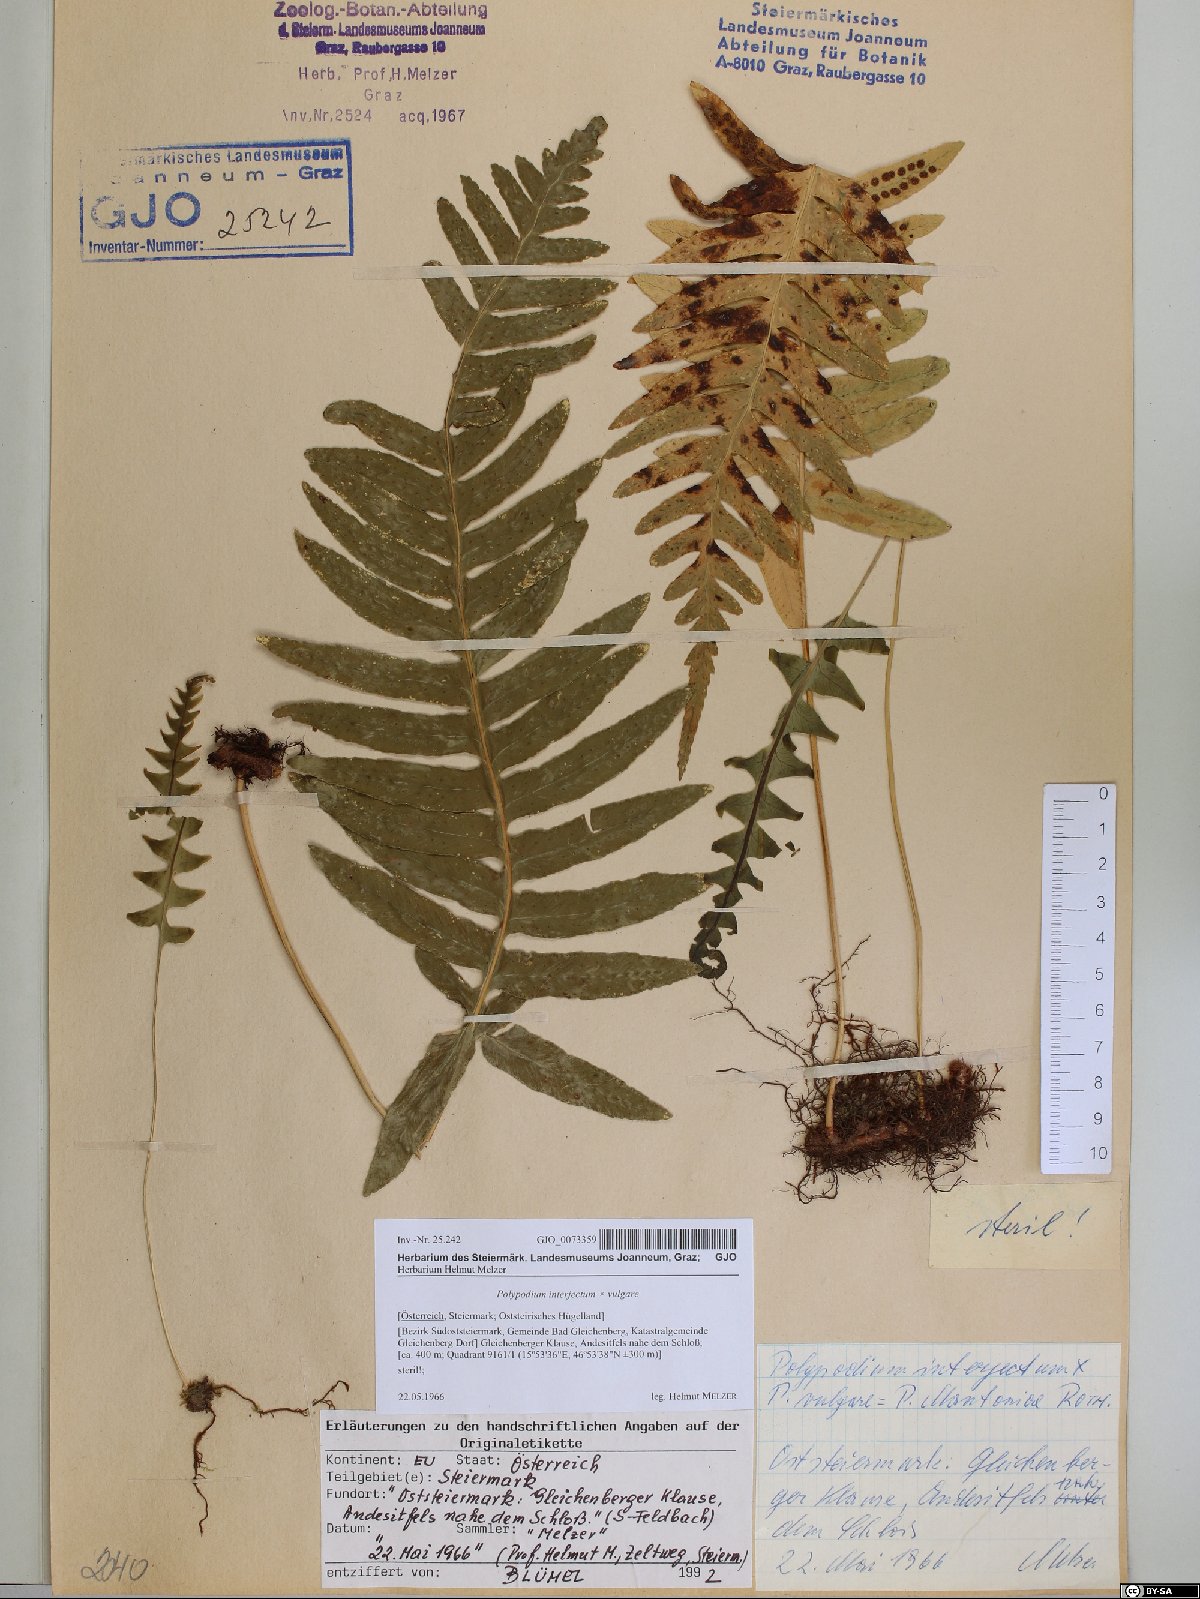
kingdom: Plantae
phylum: Tracheophyta
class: Polypodiopsida
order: Polypodiales
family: Polypodiaceae
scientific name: Polypodiaceae
